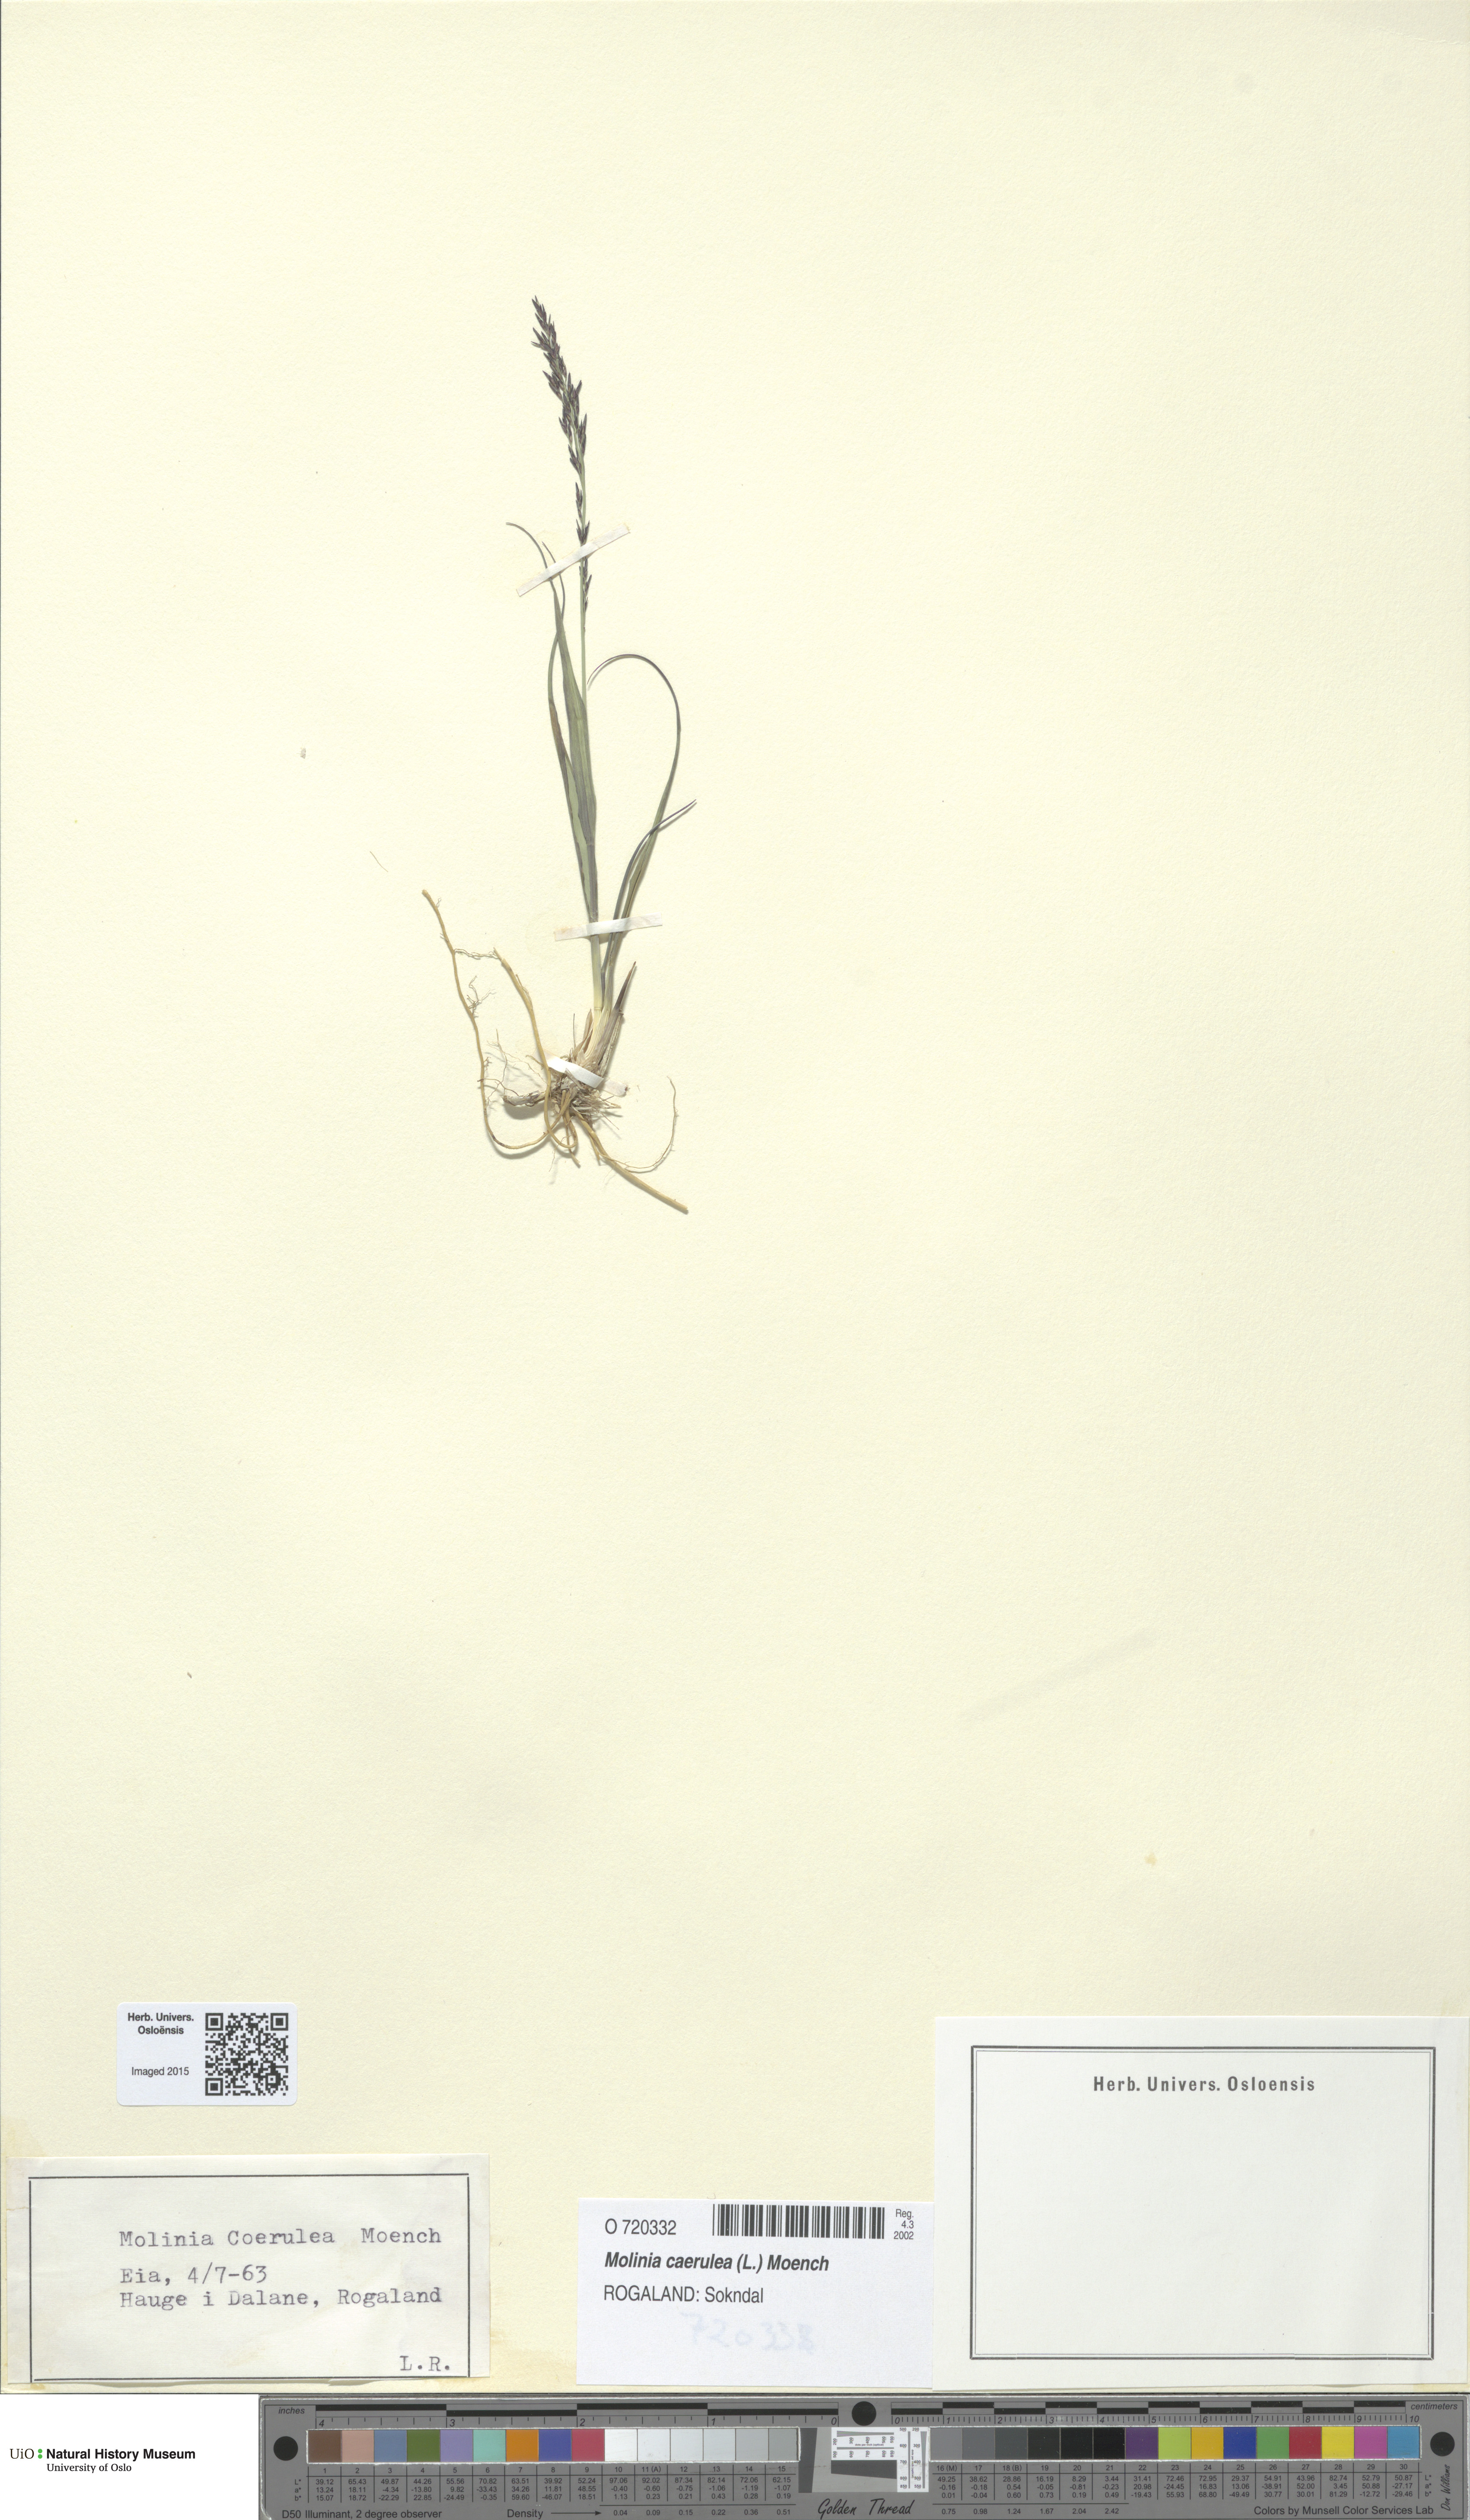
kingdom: Plantae
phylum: Tracheophyta
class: Liliopsida
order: Poales
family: Poaceae
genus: Molinia
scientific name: Molinia caerulea
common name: Purple moor-grass
